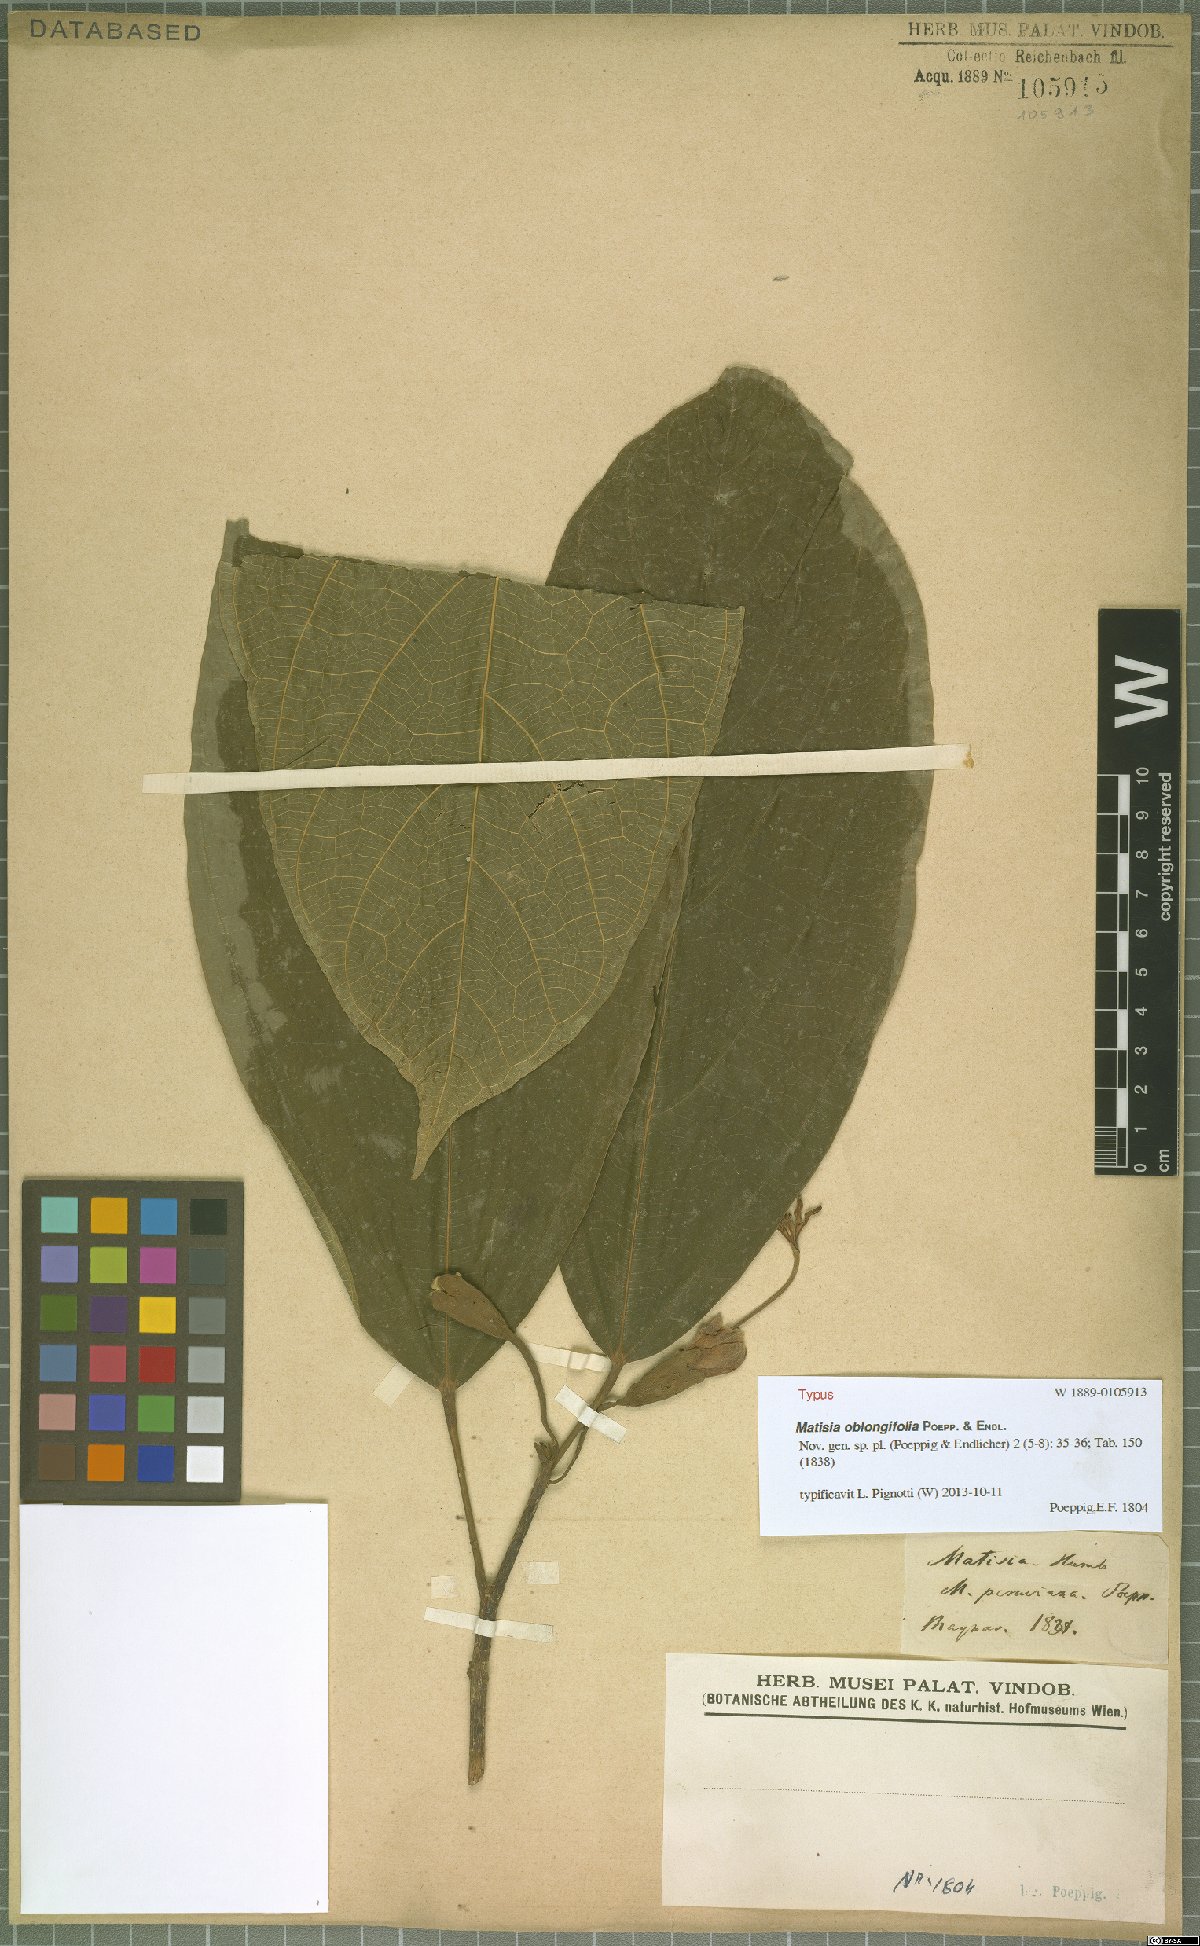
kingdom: Plantae
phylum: Tracheophyta
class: Magnoliopsida
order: Malvales
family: Malvaceae
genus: Matisia
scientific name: Matisia oblongifolia
